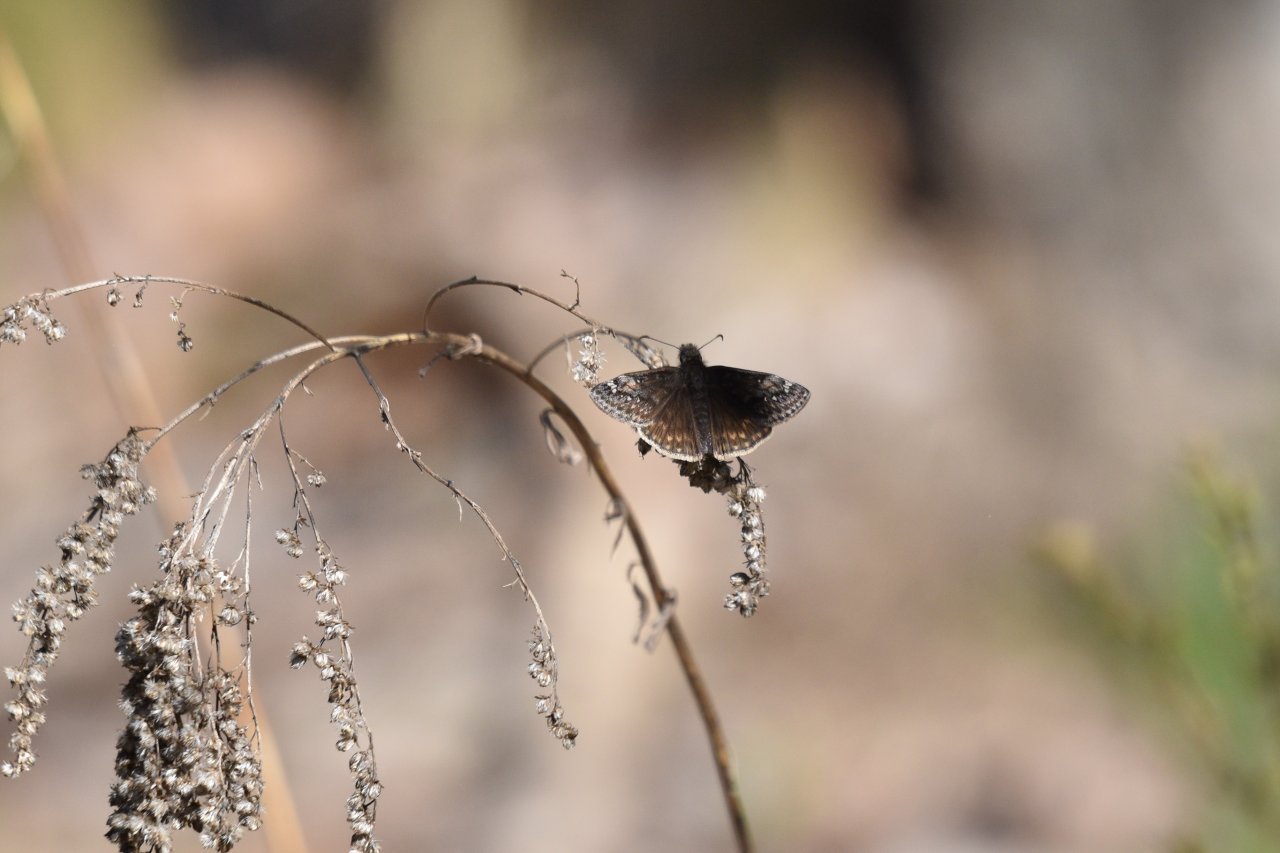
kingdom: Animalia
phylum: Arthropoda
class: Insecta
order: Lepidoptera
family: Hesperiidae
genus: Gesta
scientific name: Gesta
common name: Juvenal's Duskywing
